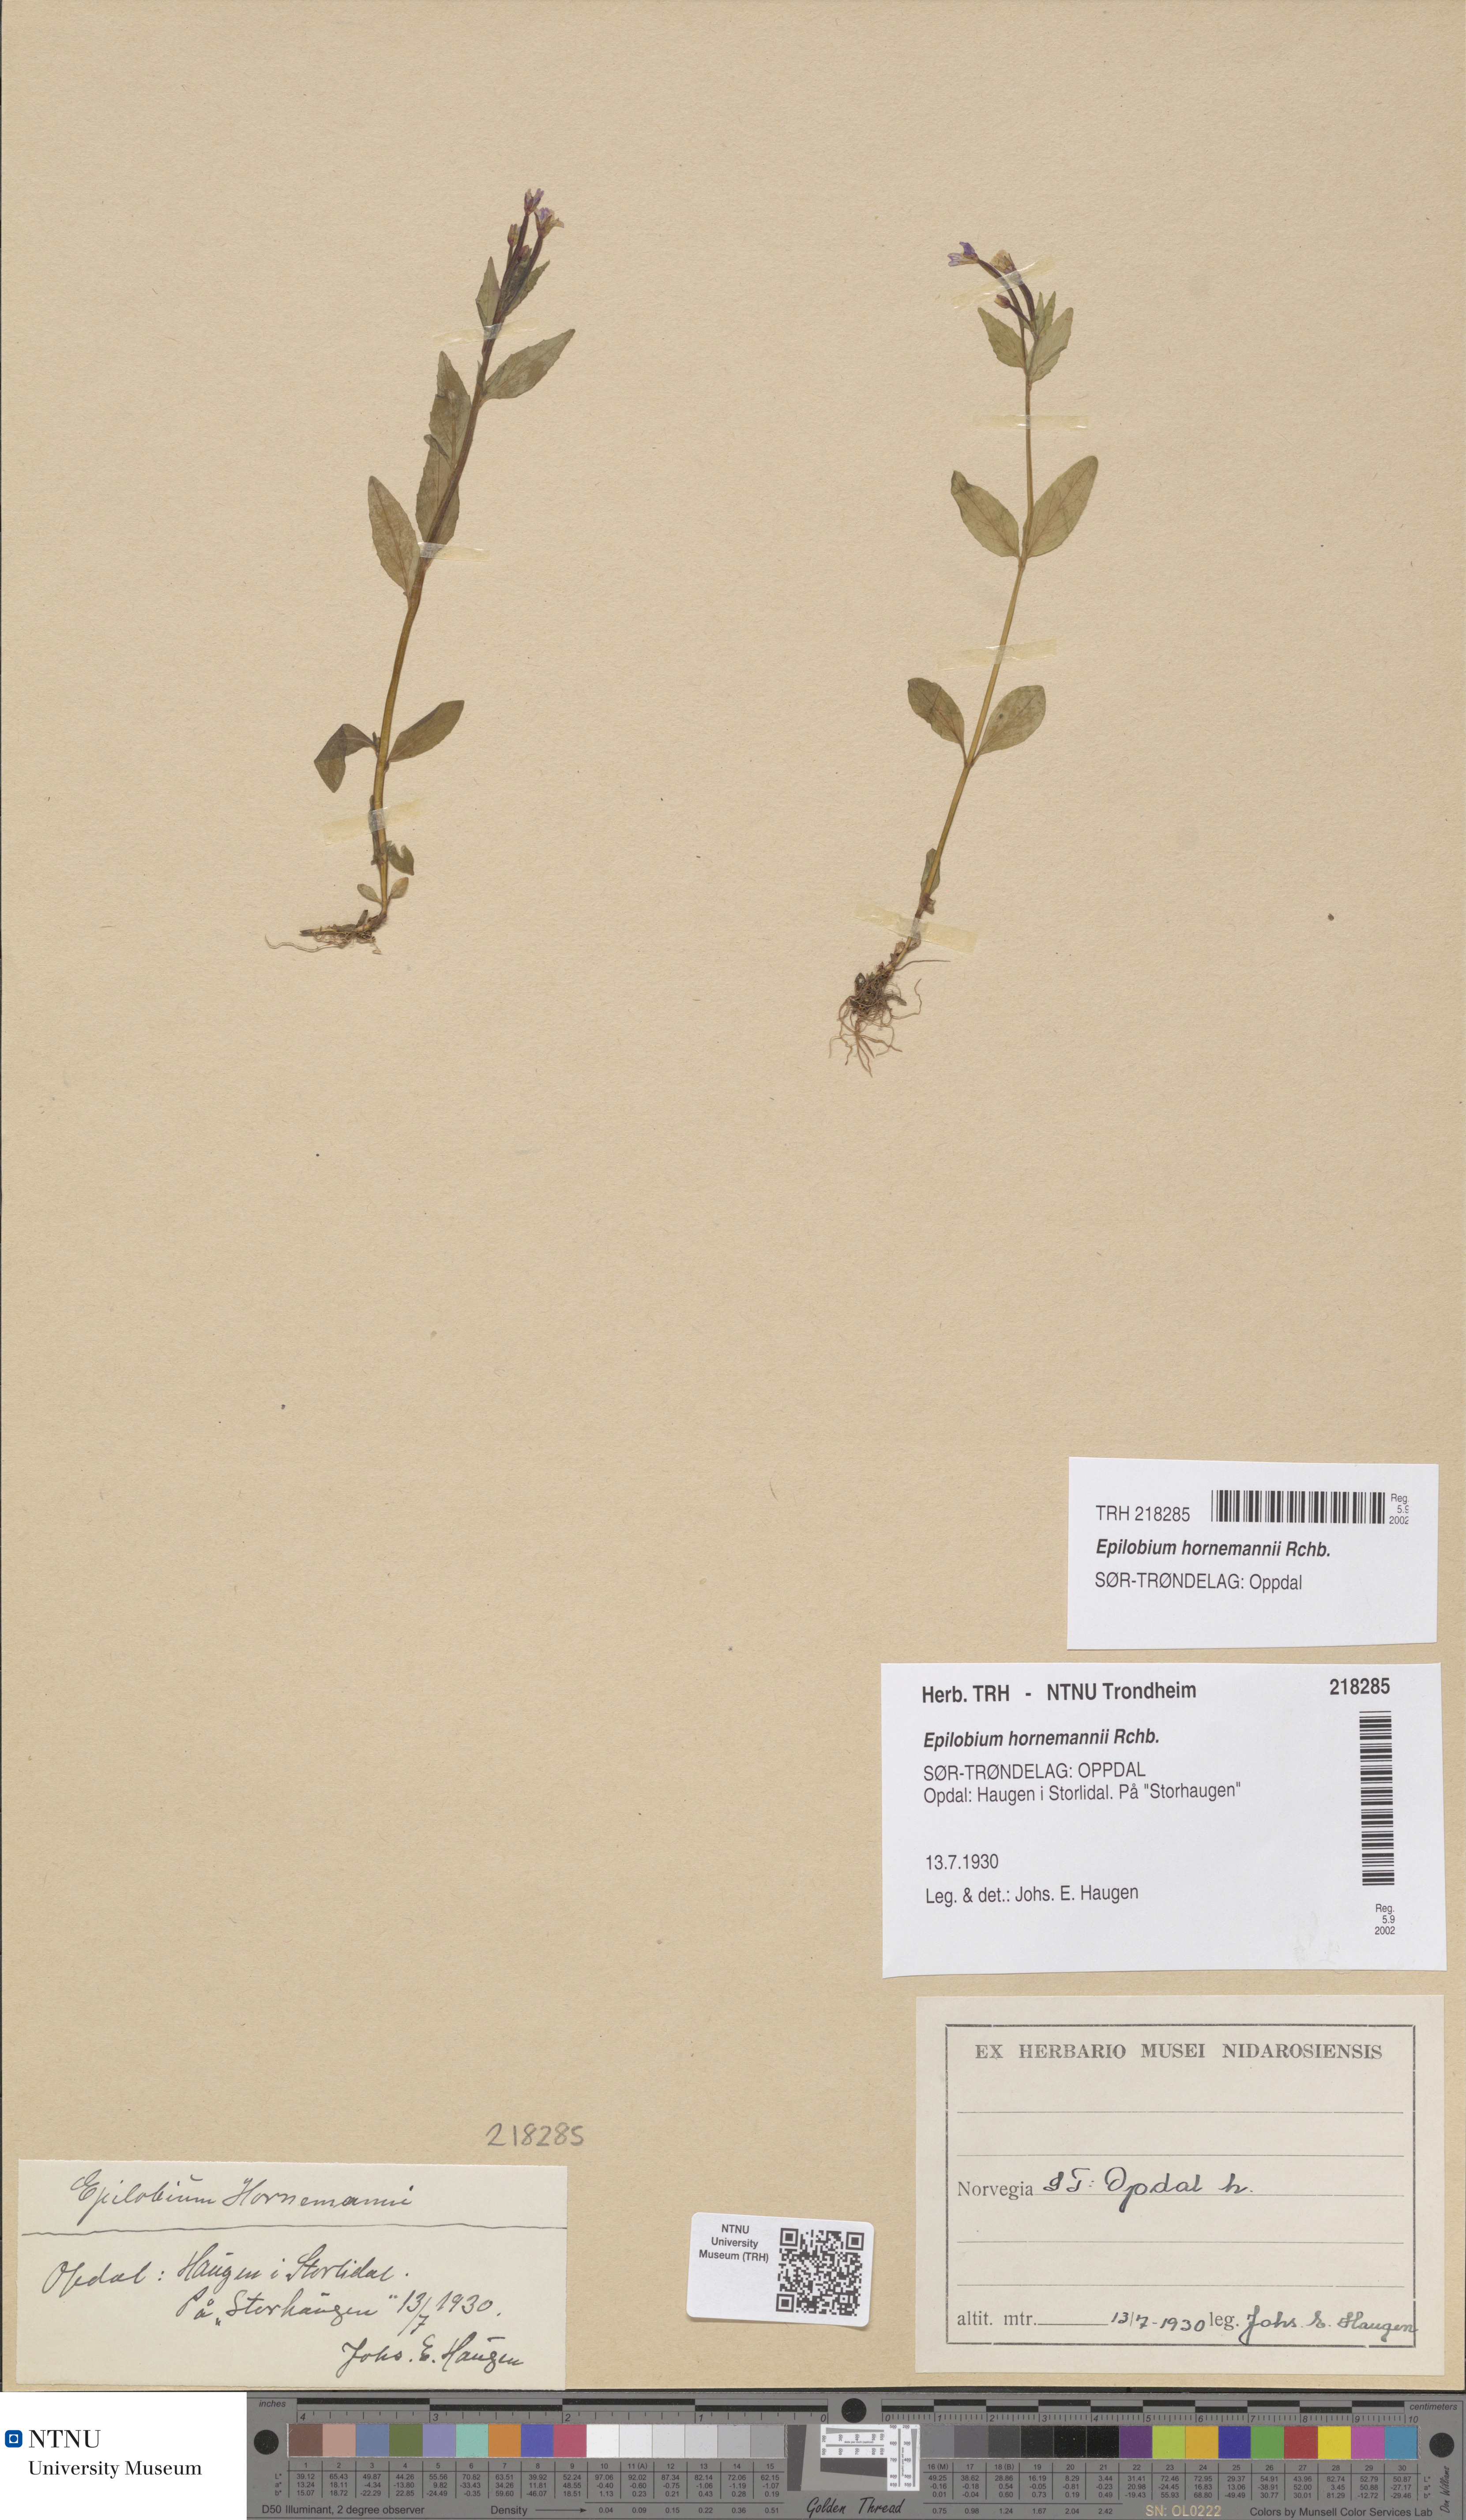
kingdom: Plantae
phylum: Tracheophyta
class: Magnoliopsida
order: Myrtales
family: Onagraceae
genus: Epilobium
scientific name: Epilobium hornemannii
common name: Hornemann's willowherb
